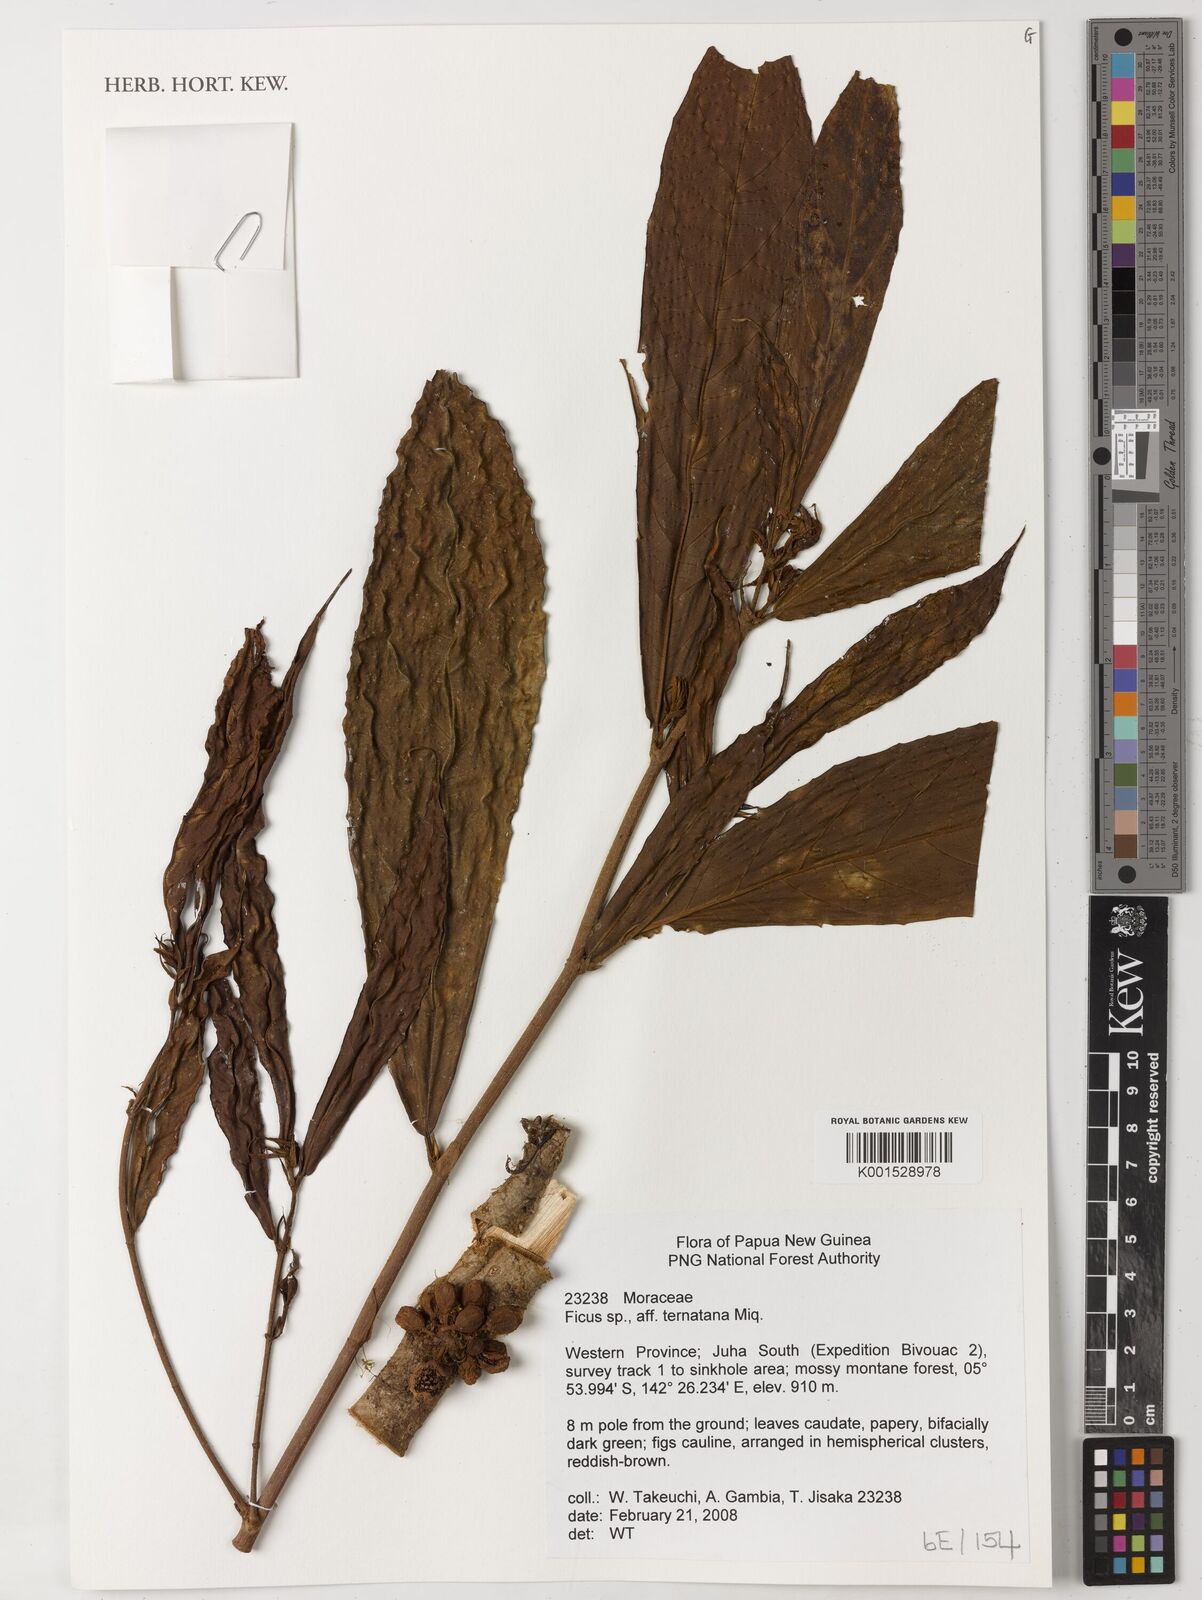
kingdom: Plantae
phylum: Tracheophyta
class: Magnoliopsida
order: Rosales
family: Moraceae
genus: Ficus
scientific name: Ficus ternatana
